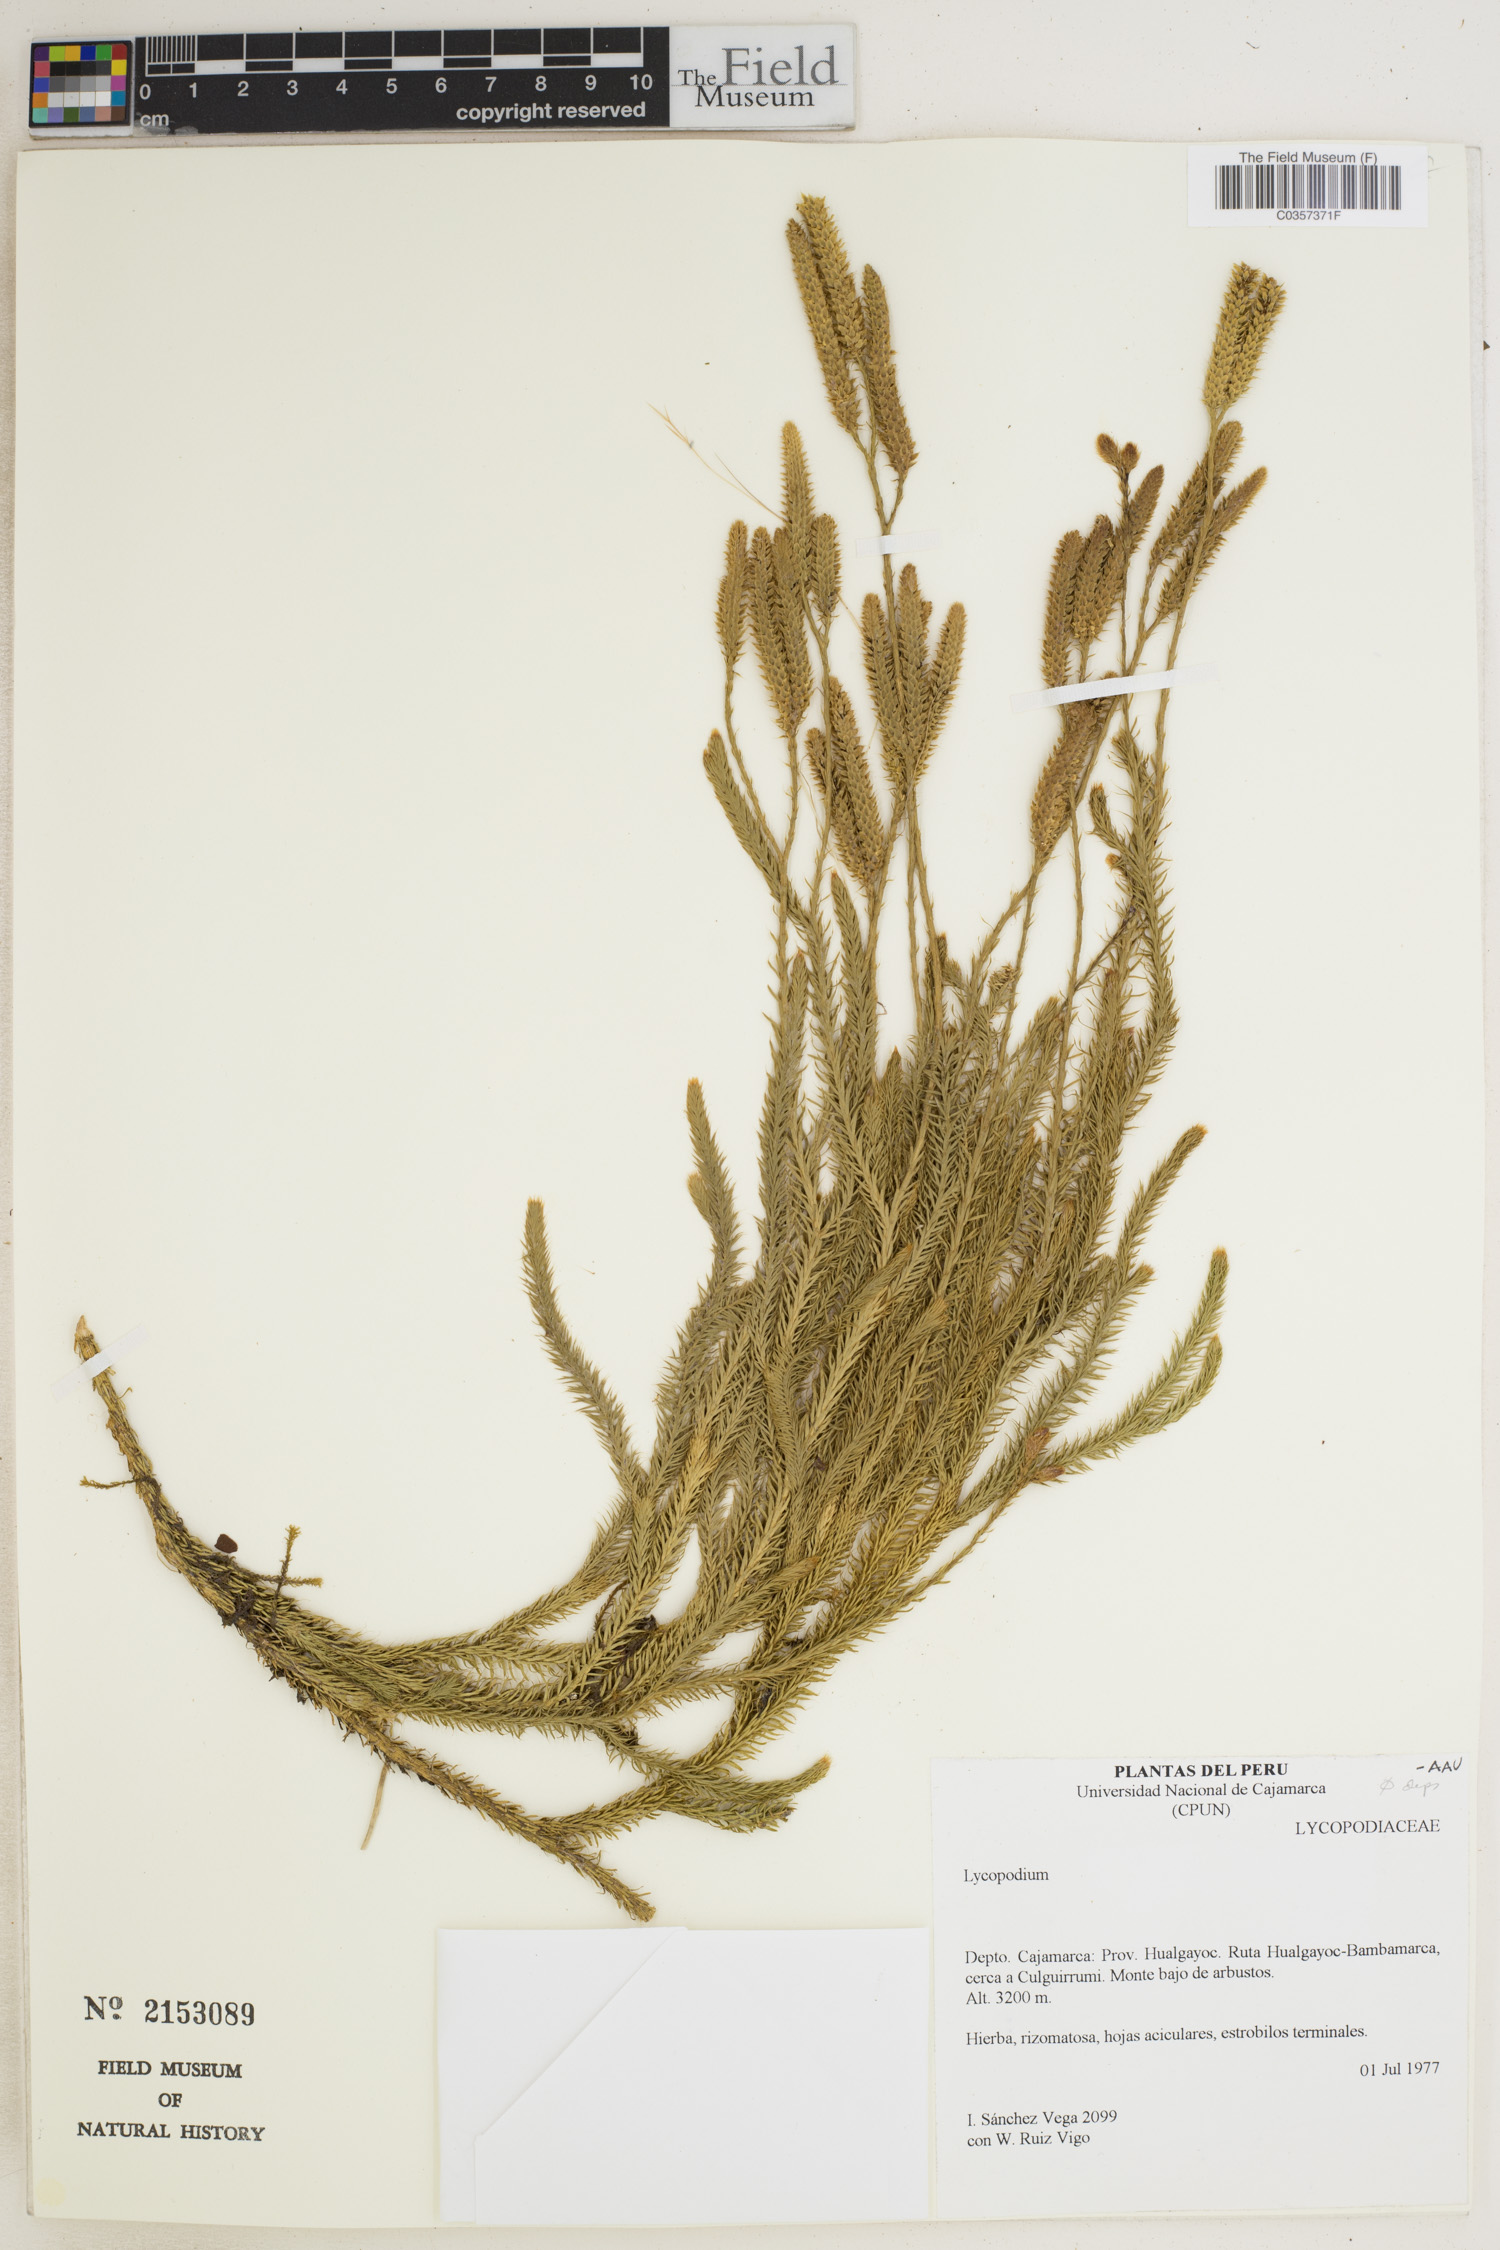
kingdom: Plantae
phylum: Tracheophyta
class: Lycopodiopsida
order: Lycopodiales
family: Lycopodiaceae
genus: Lycopodium
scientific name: Lycopodium
